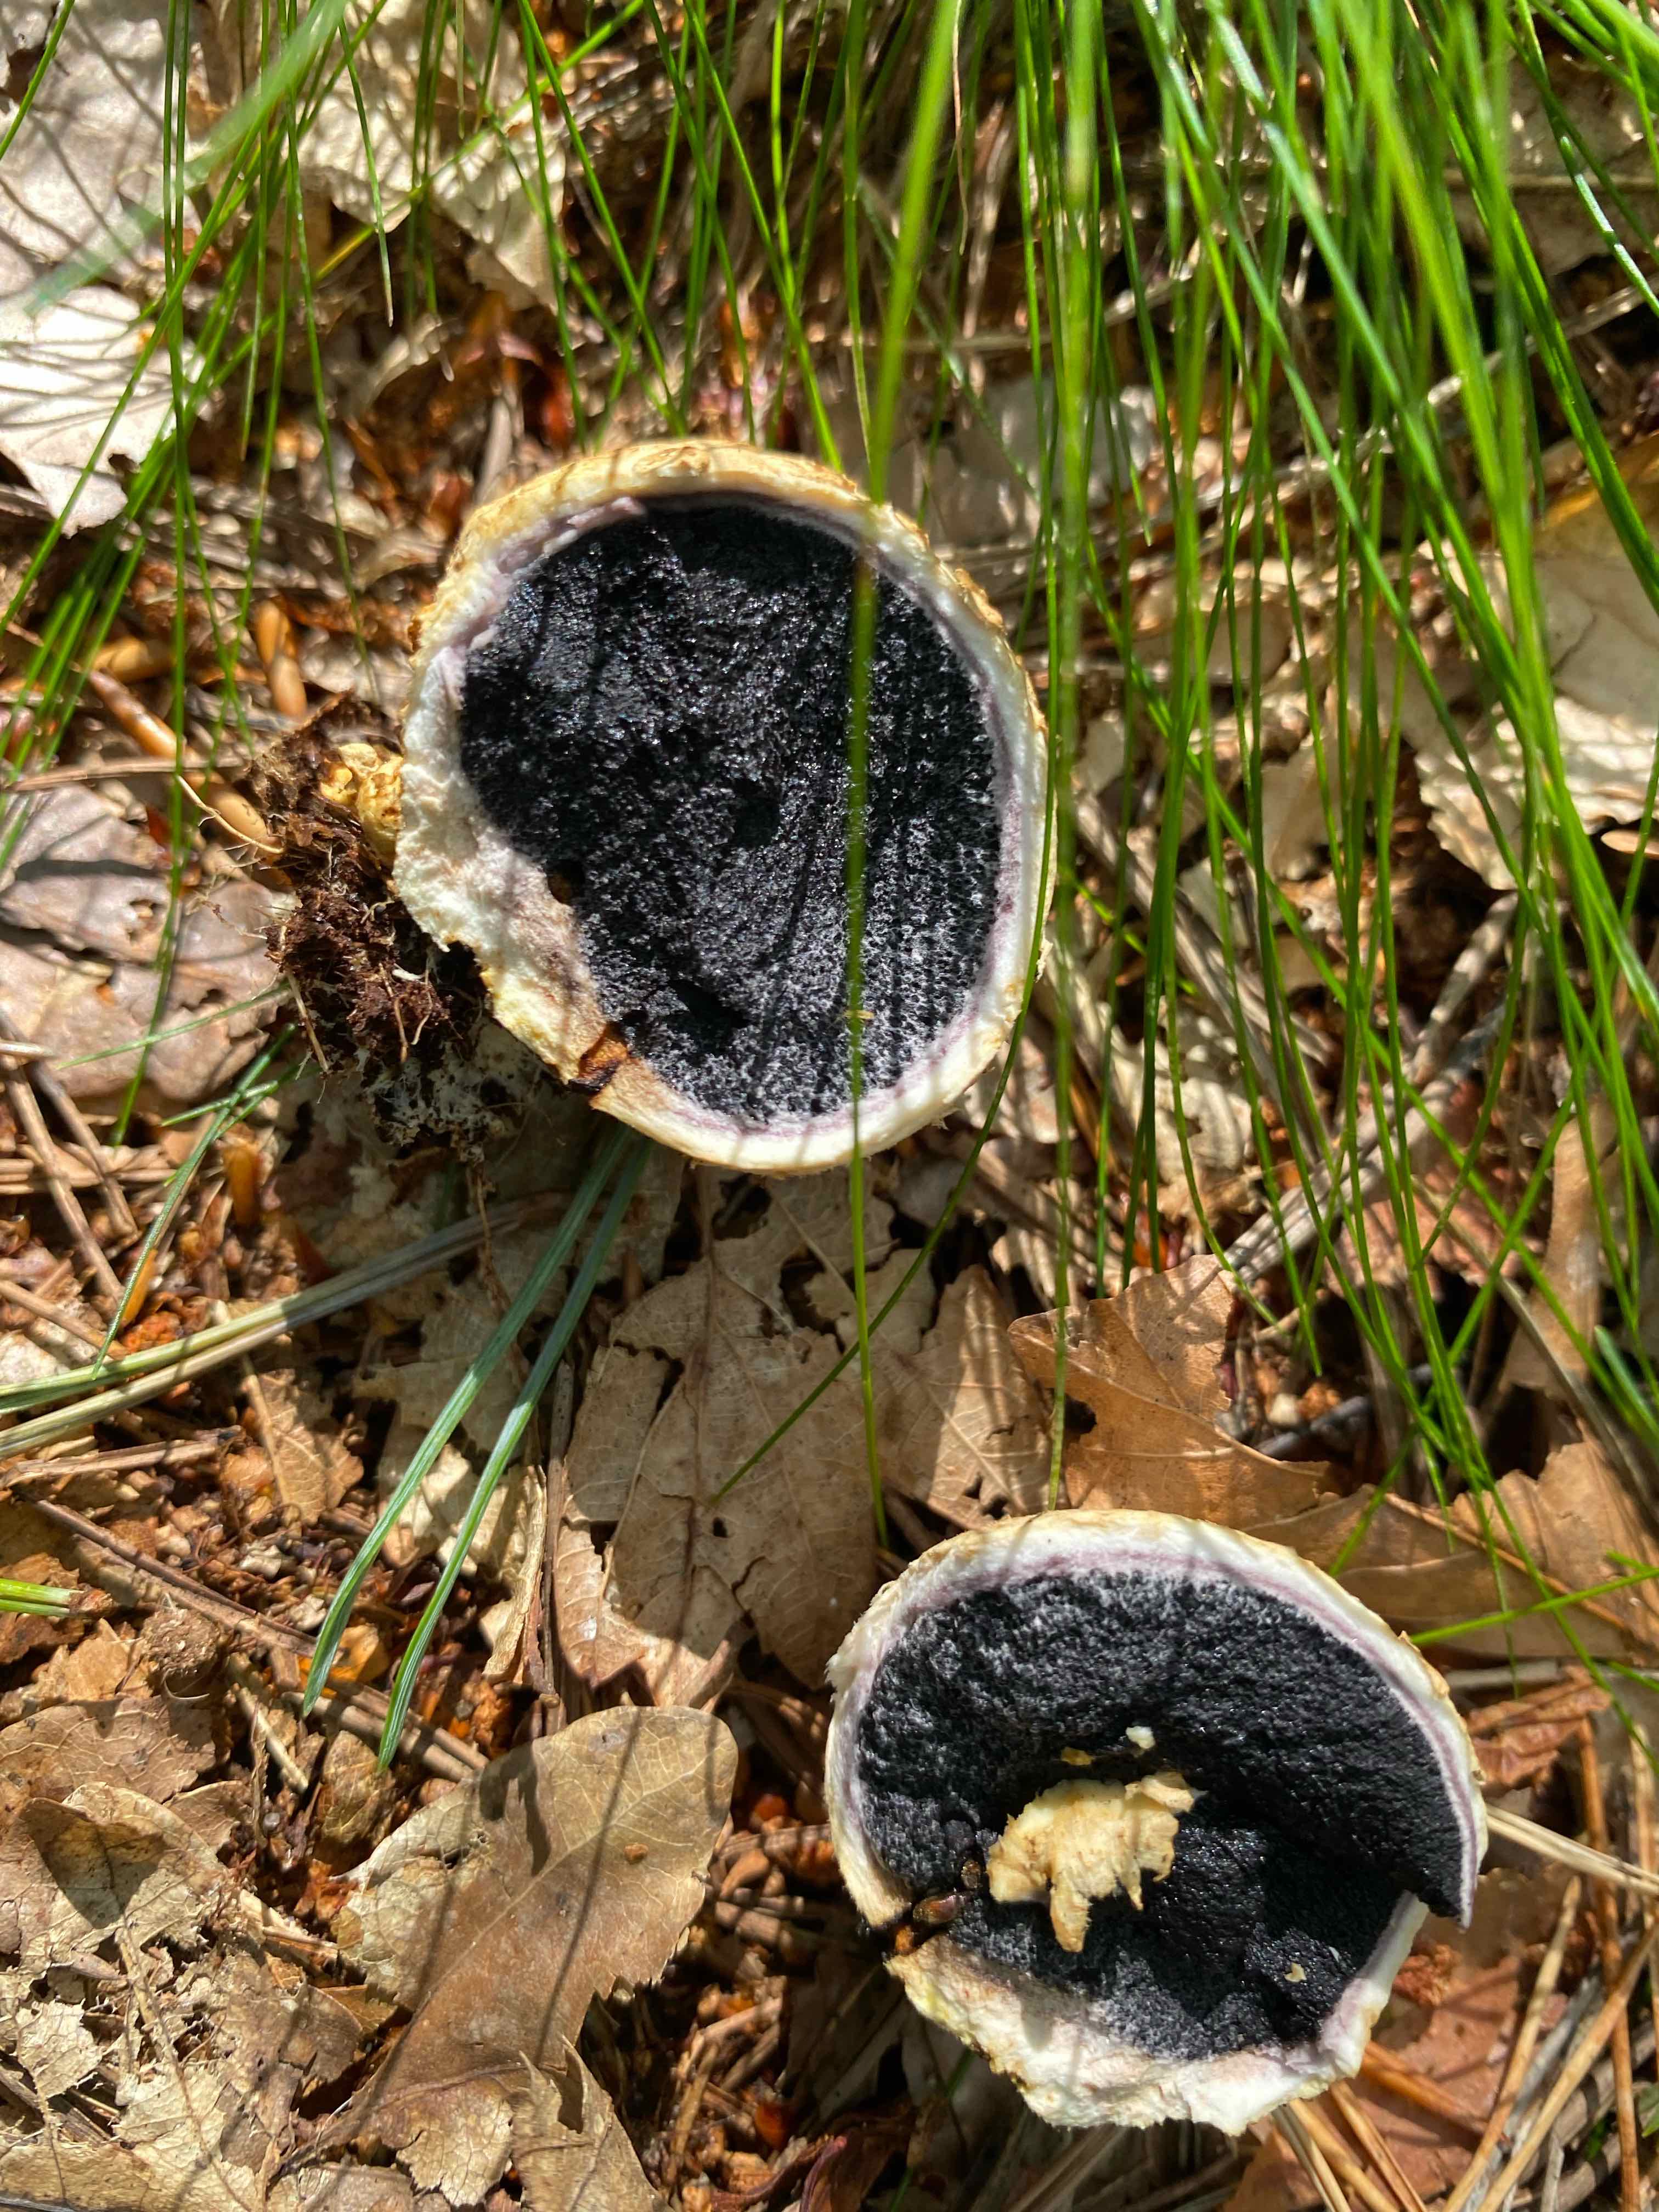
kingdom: Fungi
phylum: Basidiomycota
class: Agaricomycetes
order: Boletales
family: Sclerodermataceae
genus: Scleroderma
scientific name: Scleroderma citrinum
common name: almindelig bruskbold
